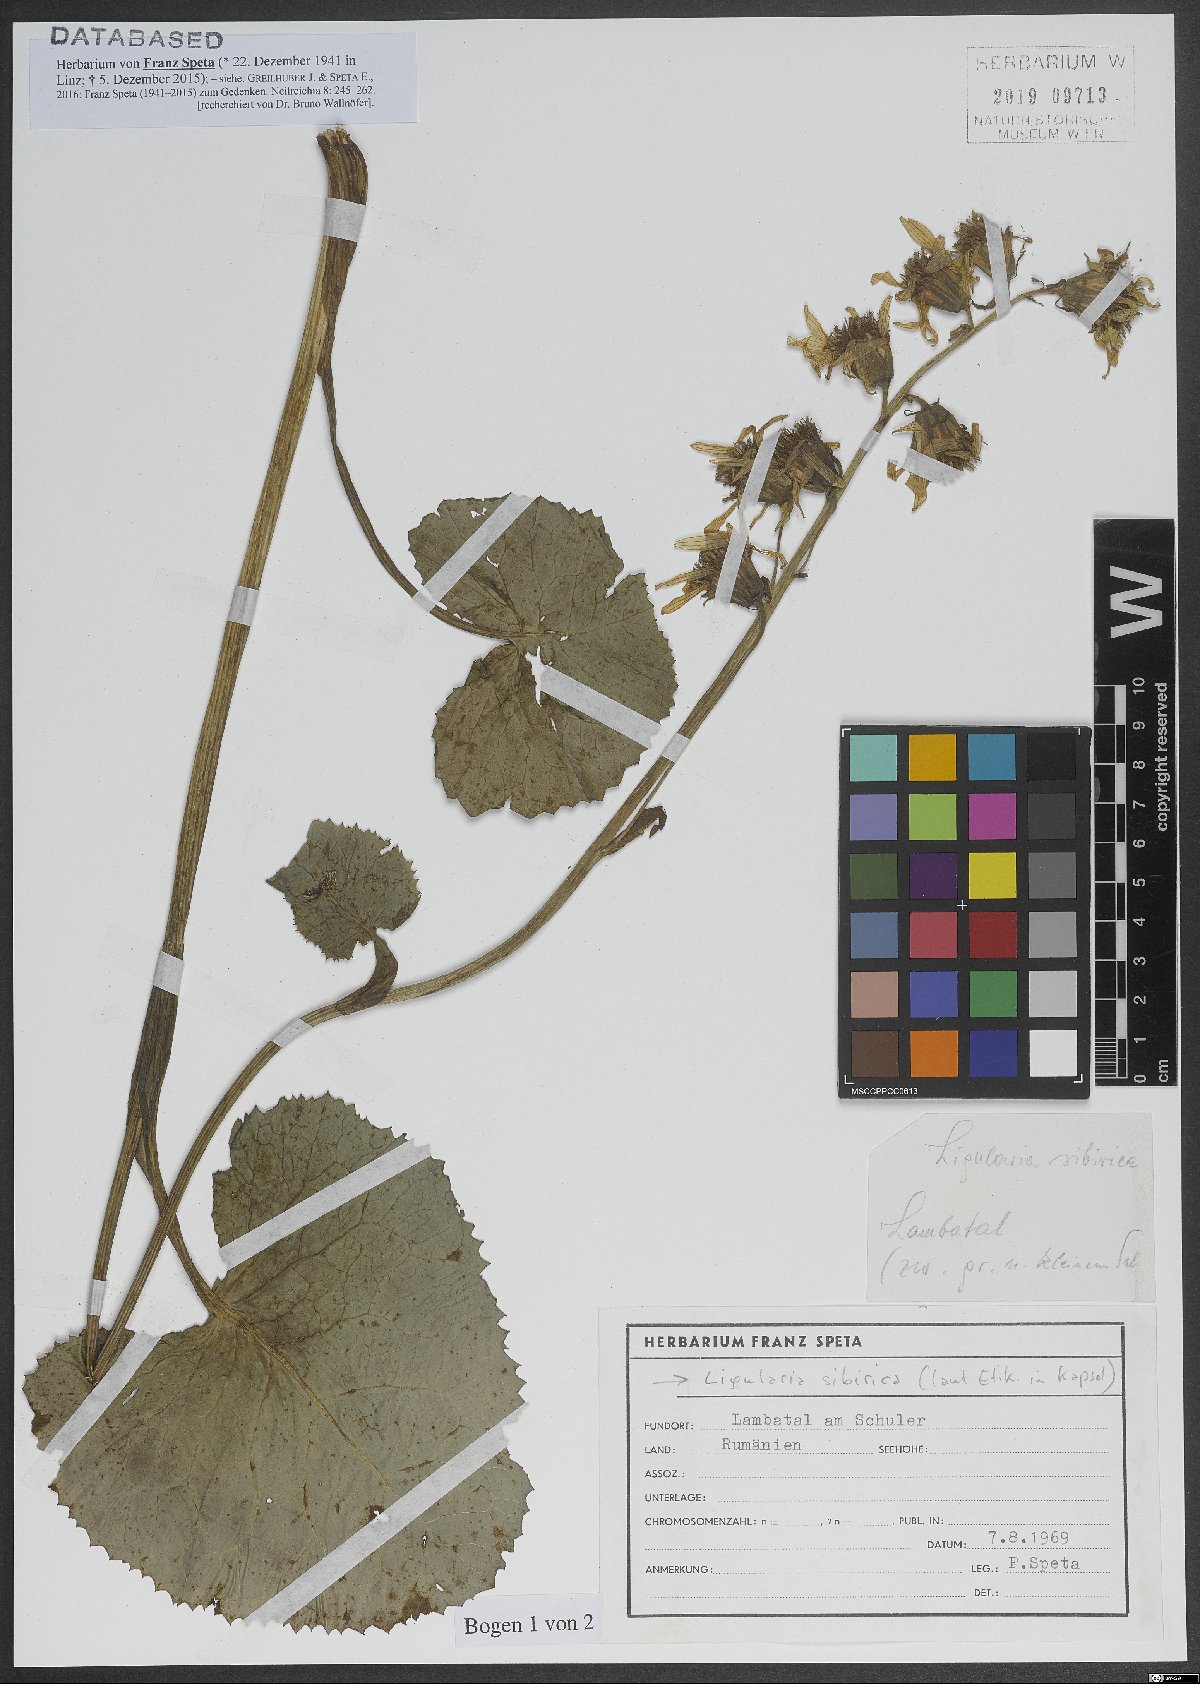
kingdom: Plantae
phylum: Tracheophyta
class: Magnoliopsida
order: Asterales
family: Asteraceae
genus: Ligularia
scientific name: Ligularia sibirica
